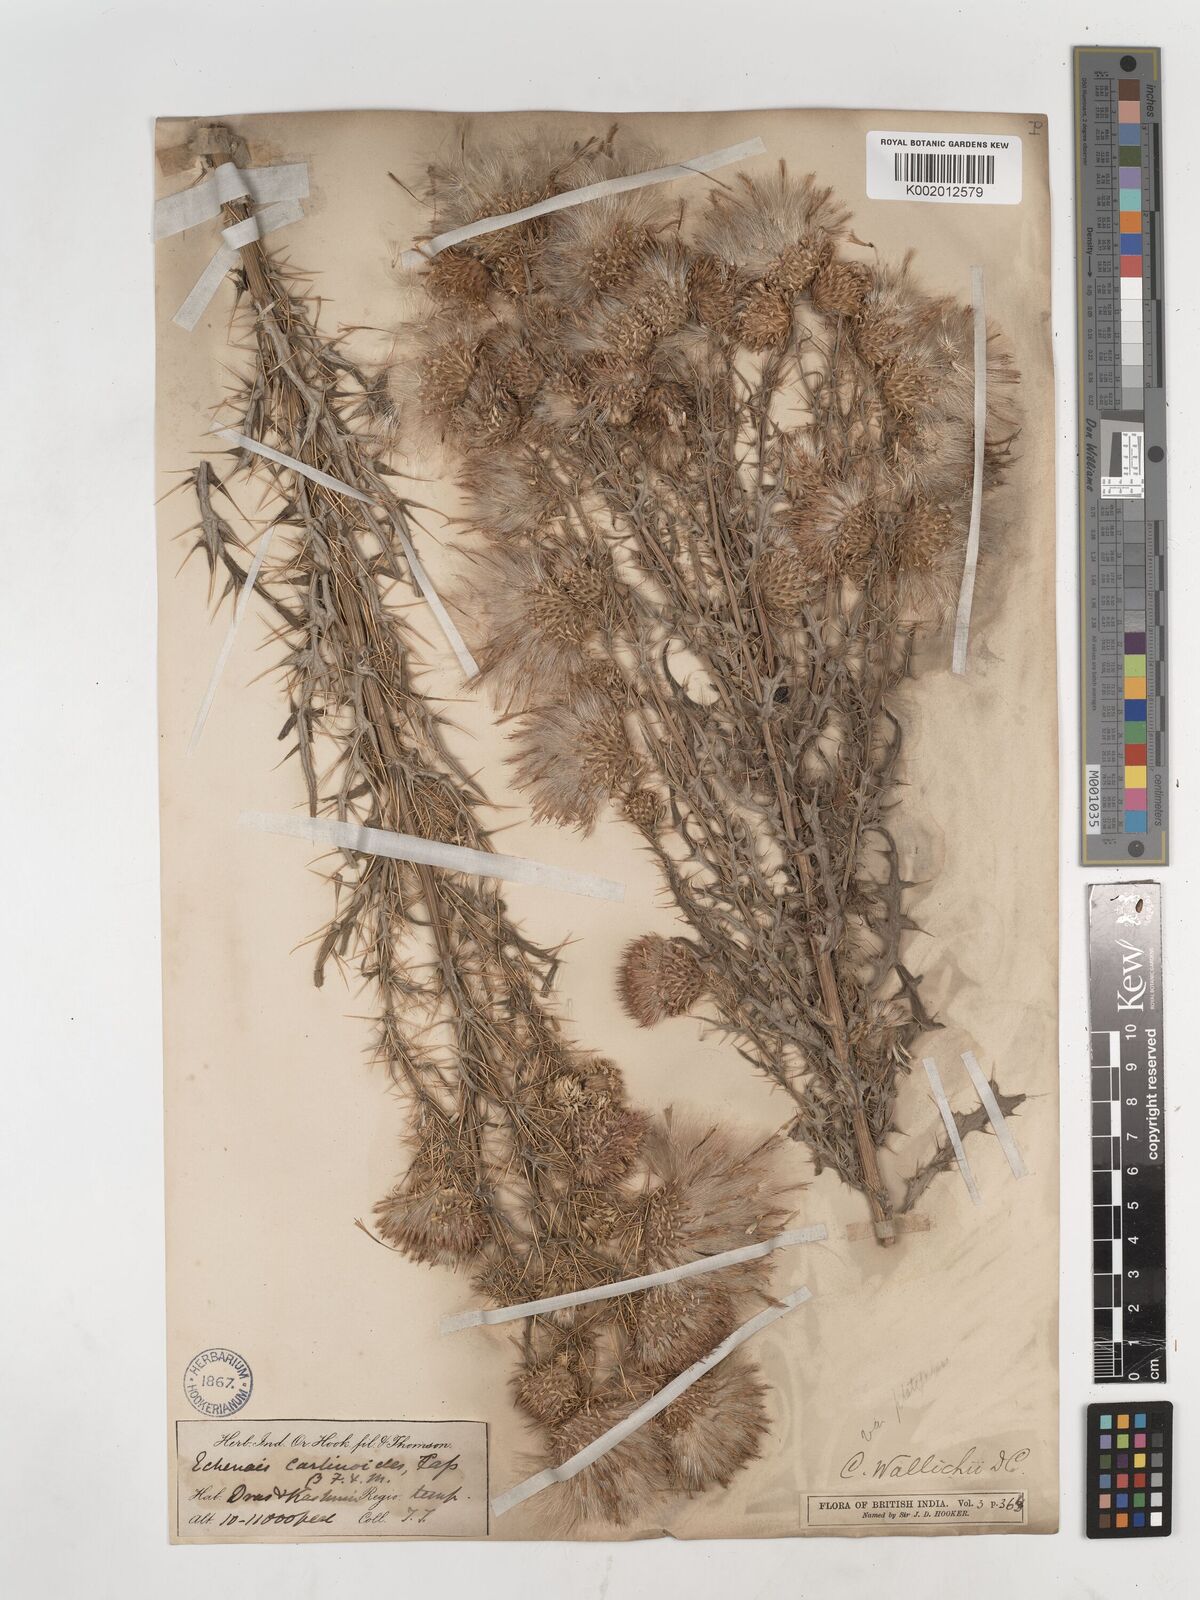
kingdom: Plantae
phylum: Tracheophyta
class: Magnoliopsida
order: Asterales
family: Asteraceae
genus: Cirsium
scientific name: Cirsium wallichii
